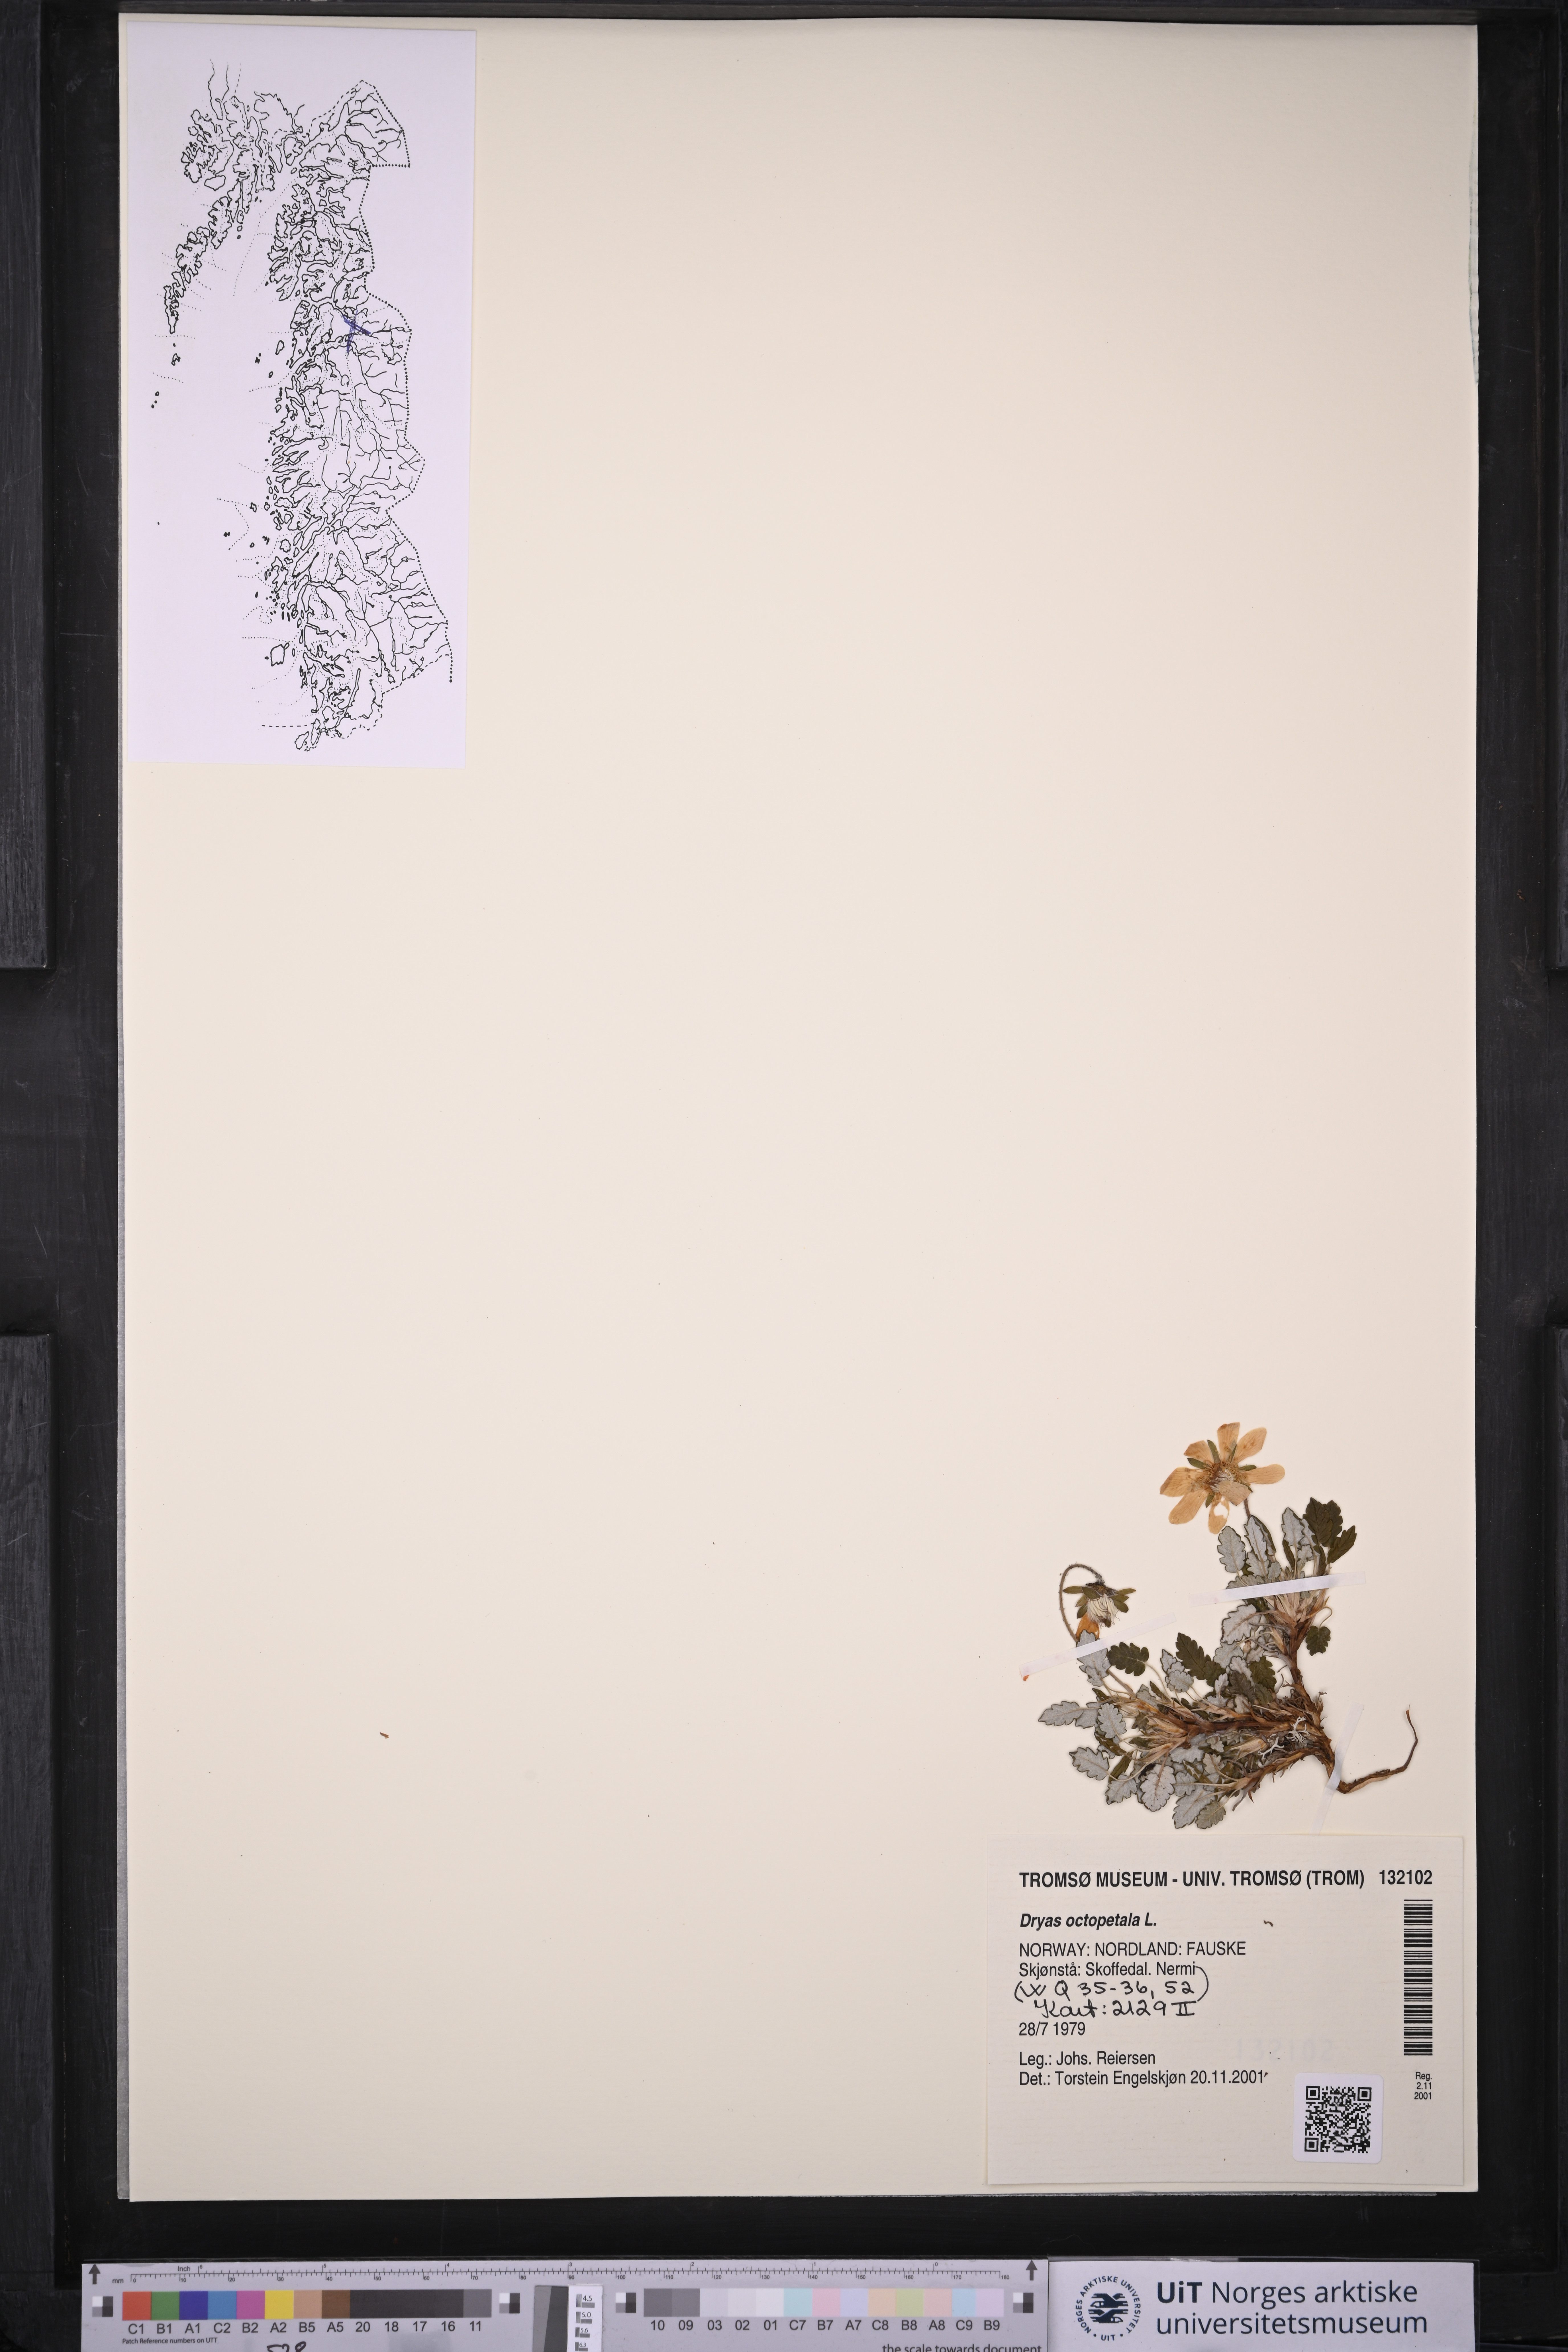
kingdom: Plantae
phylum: Tracheophyta
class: Magnoliopsida
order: Rosales
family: Rosaceae
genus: Dryas
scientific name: Dryas octopetala
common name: Eight-petal mountain-avens
